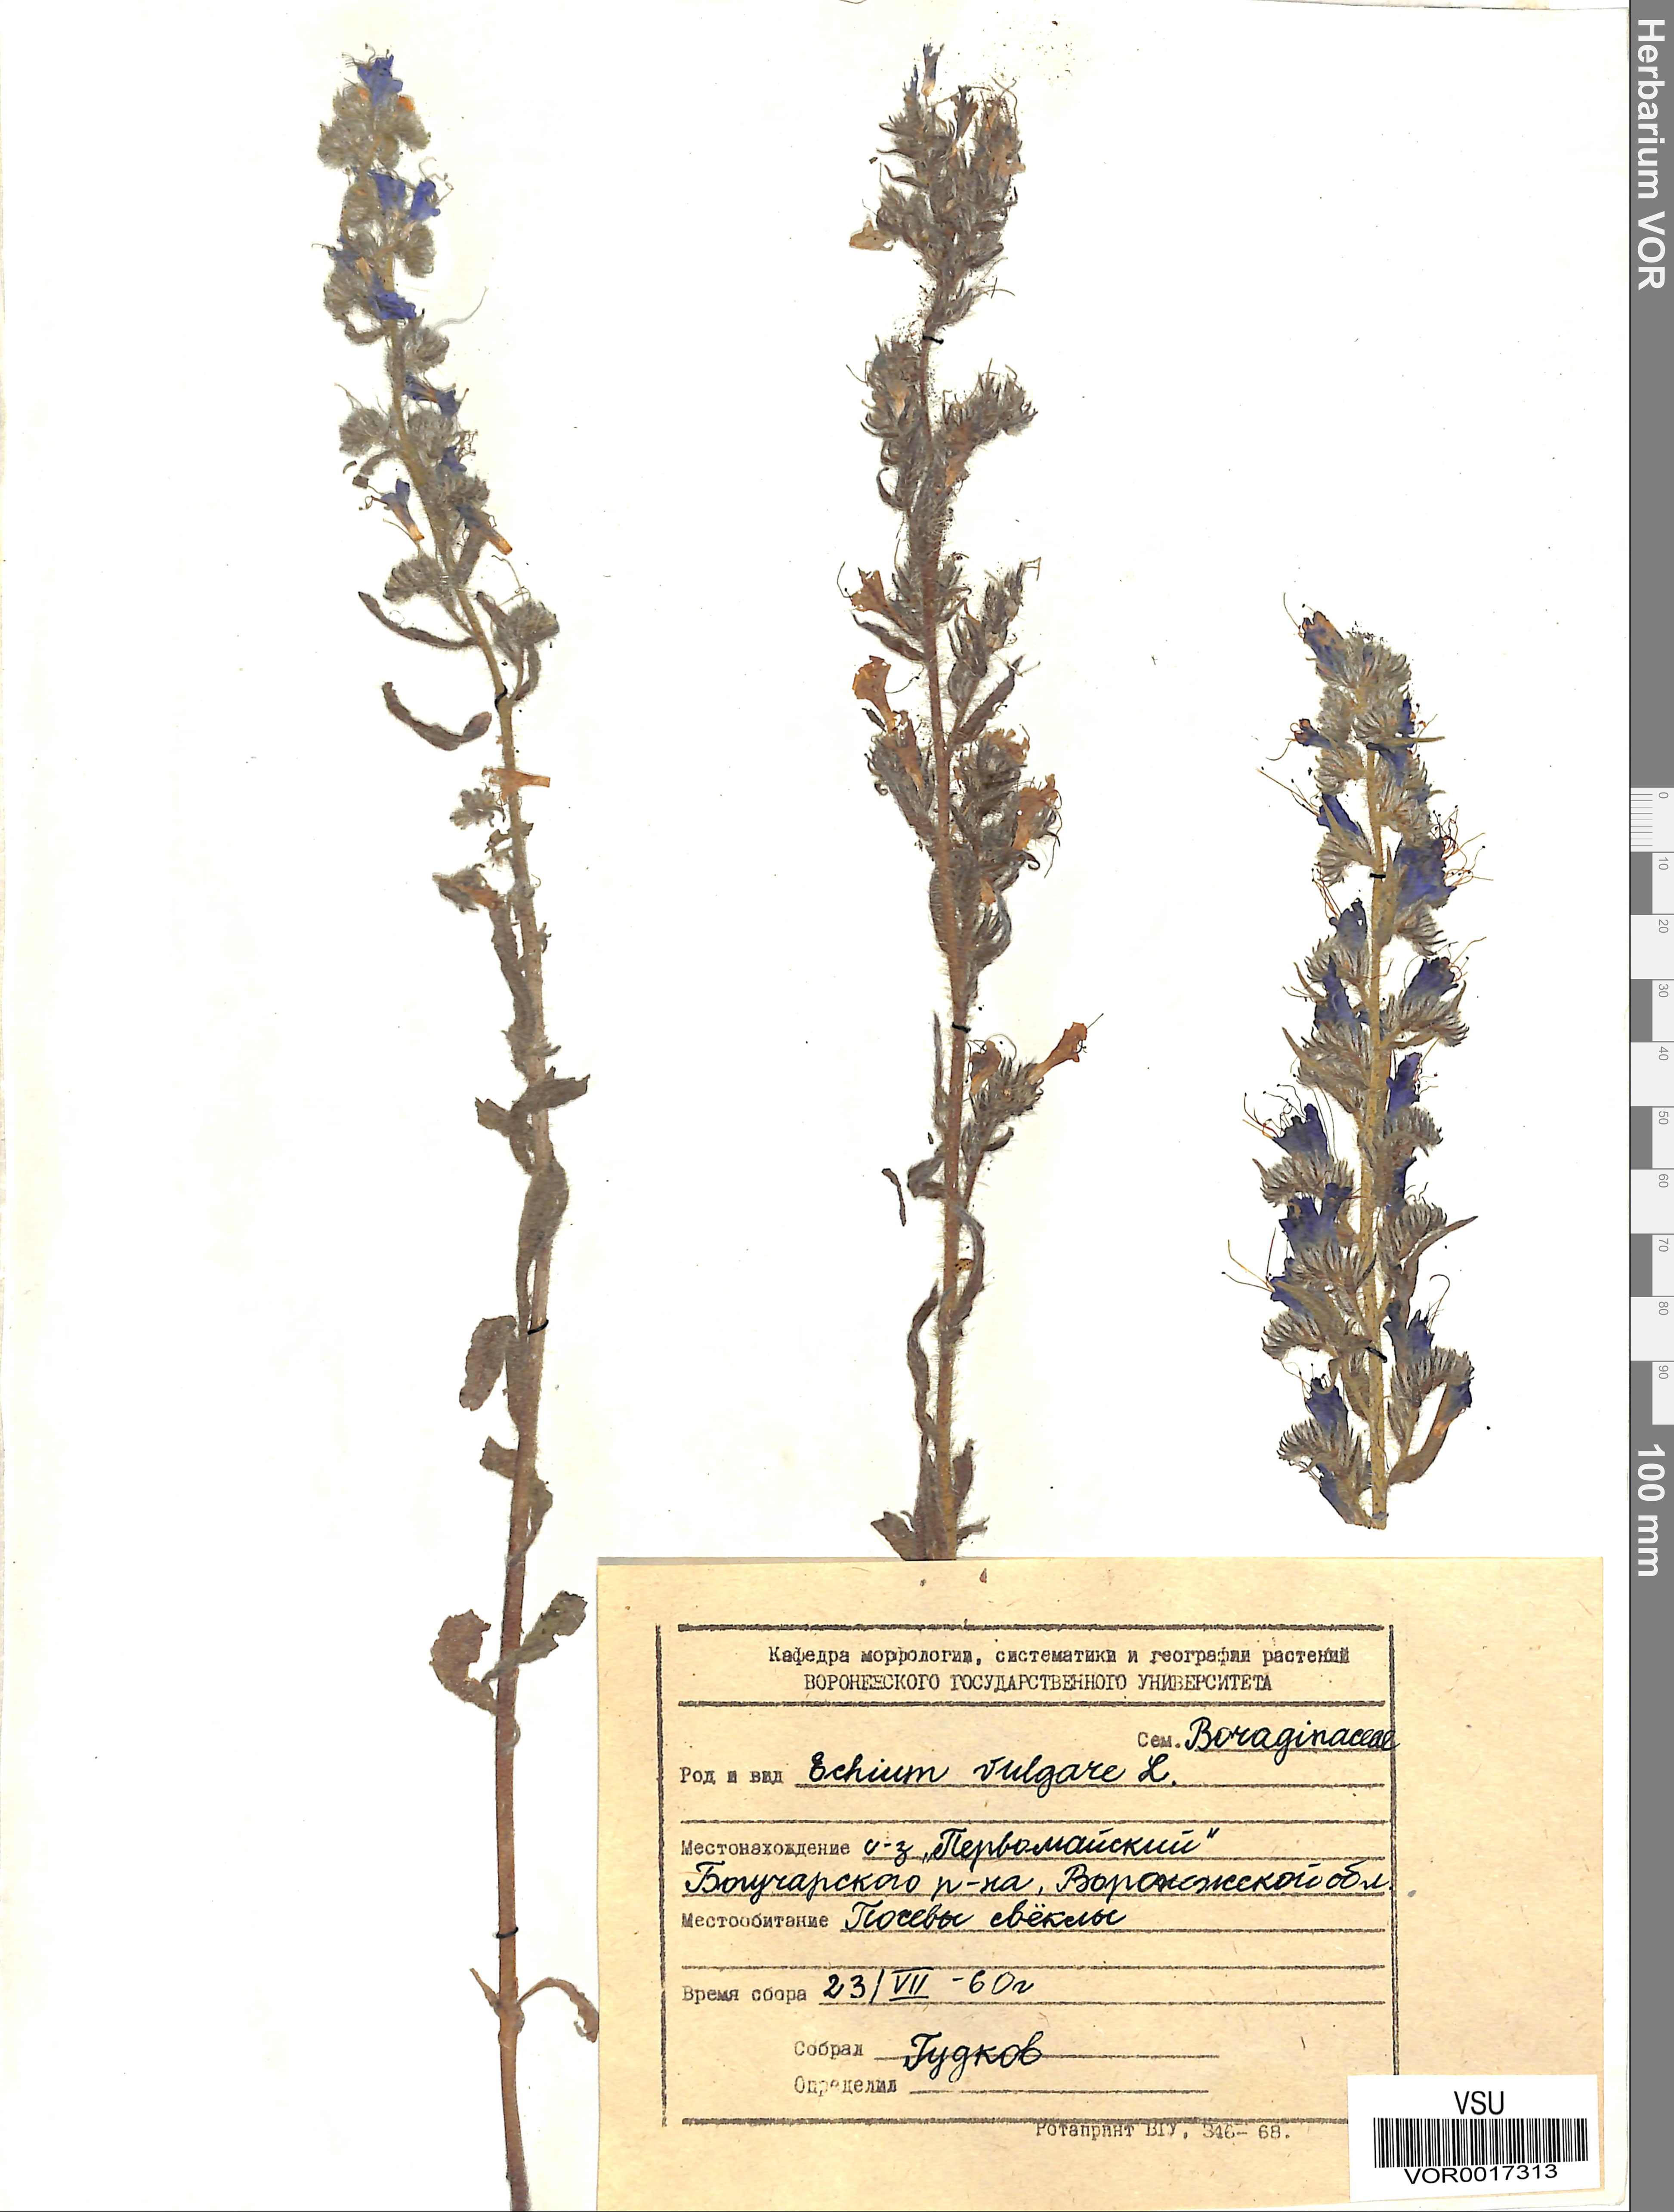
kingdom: Plantae
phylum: Tracheophyta
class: Magnoliopsida
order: Boraginales
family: Boraginaceae
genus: Echium
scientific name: Echium vulgare
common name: Common viper's bugloss
